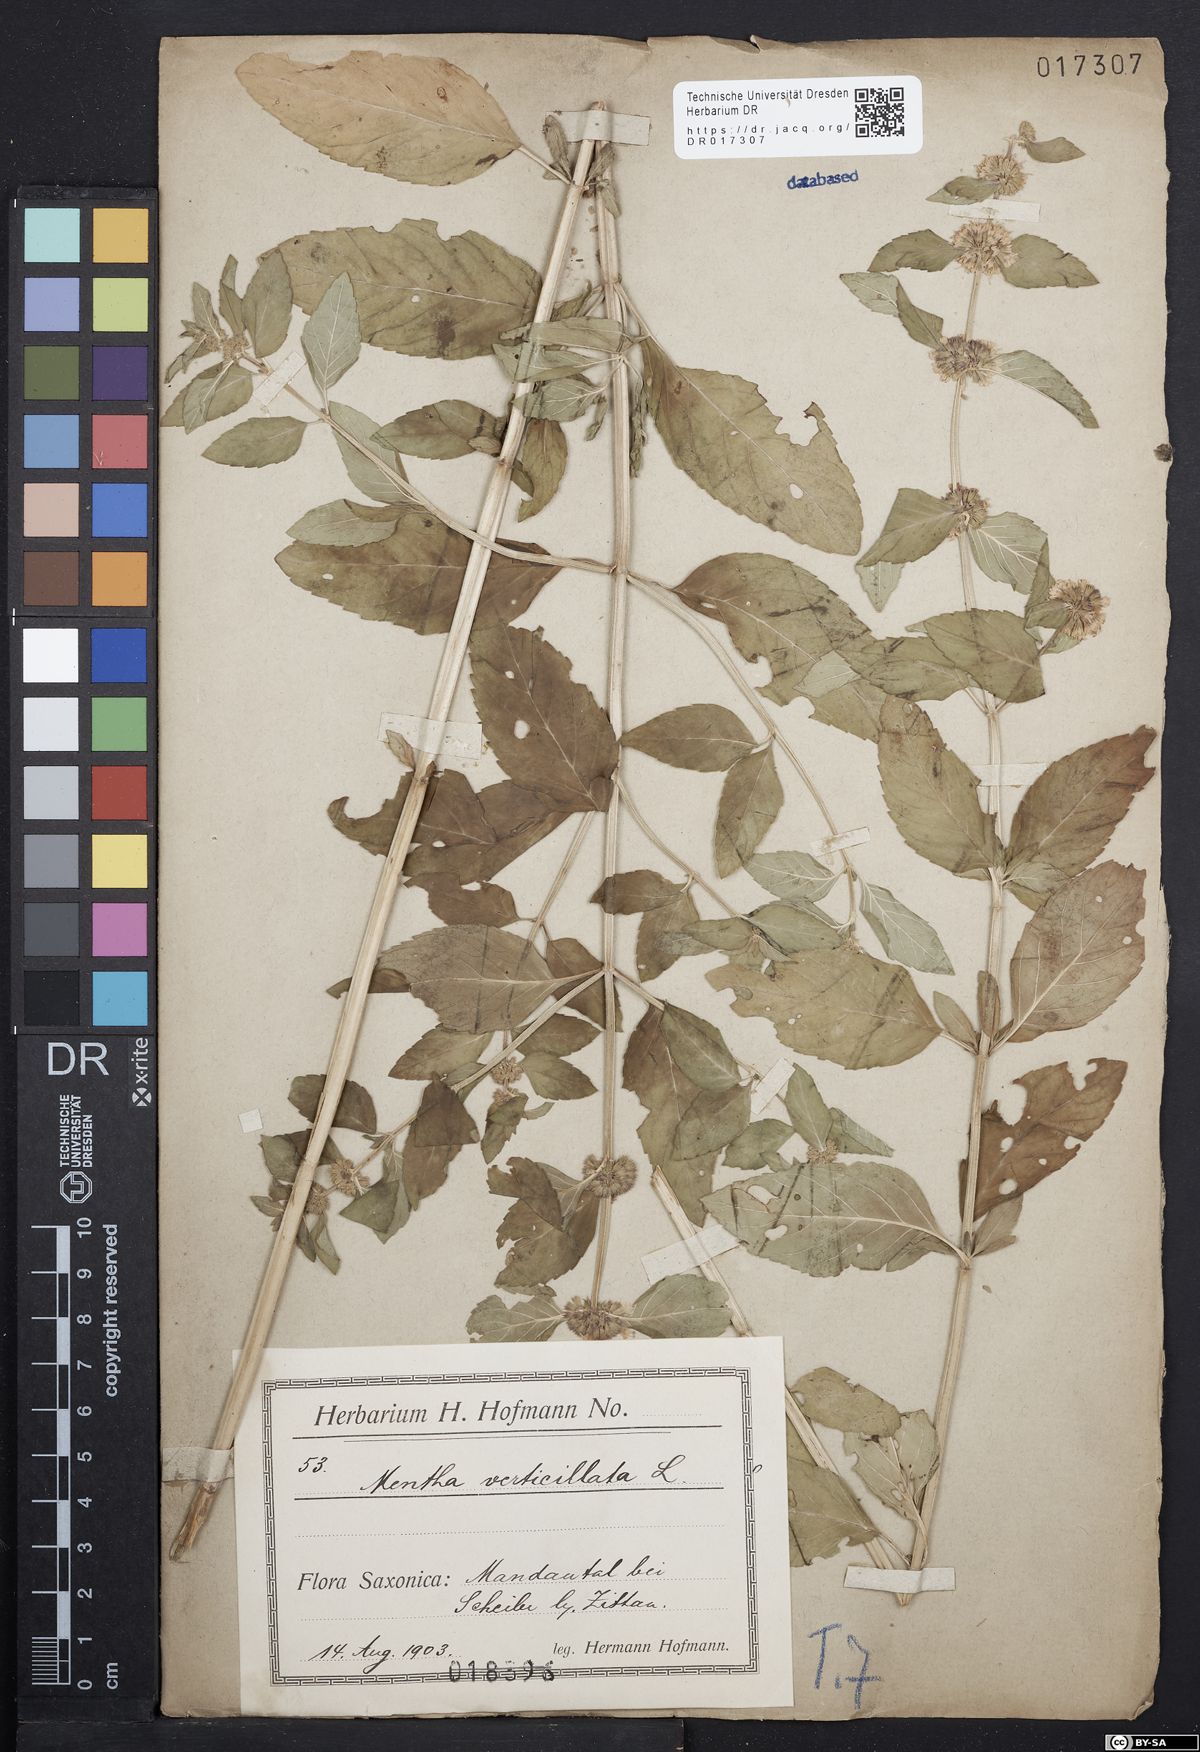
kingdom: Plantae
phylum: Tracheophyta
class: Magnoliopsida
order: Lamiales
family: Lamiaceae
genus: Mentha
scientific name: Mentha verticillata
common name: Mint
